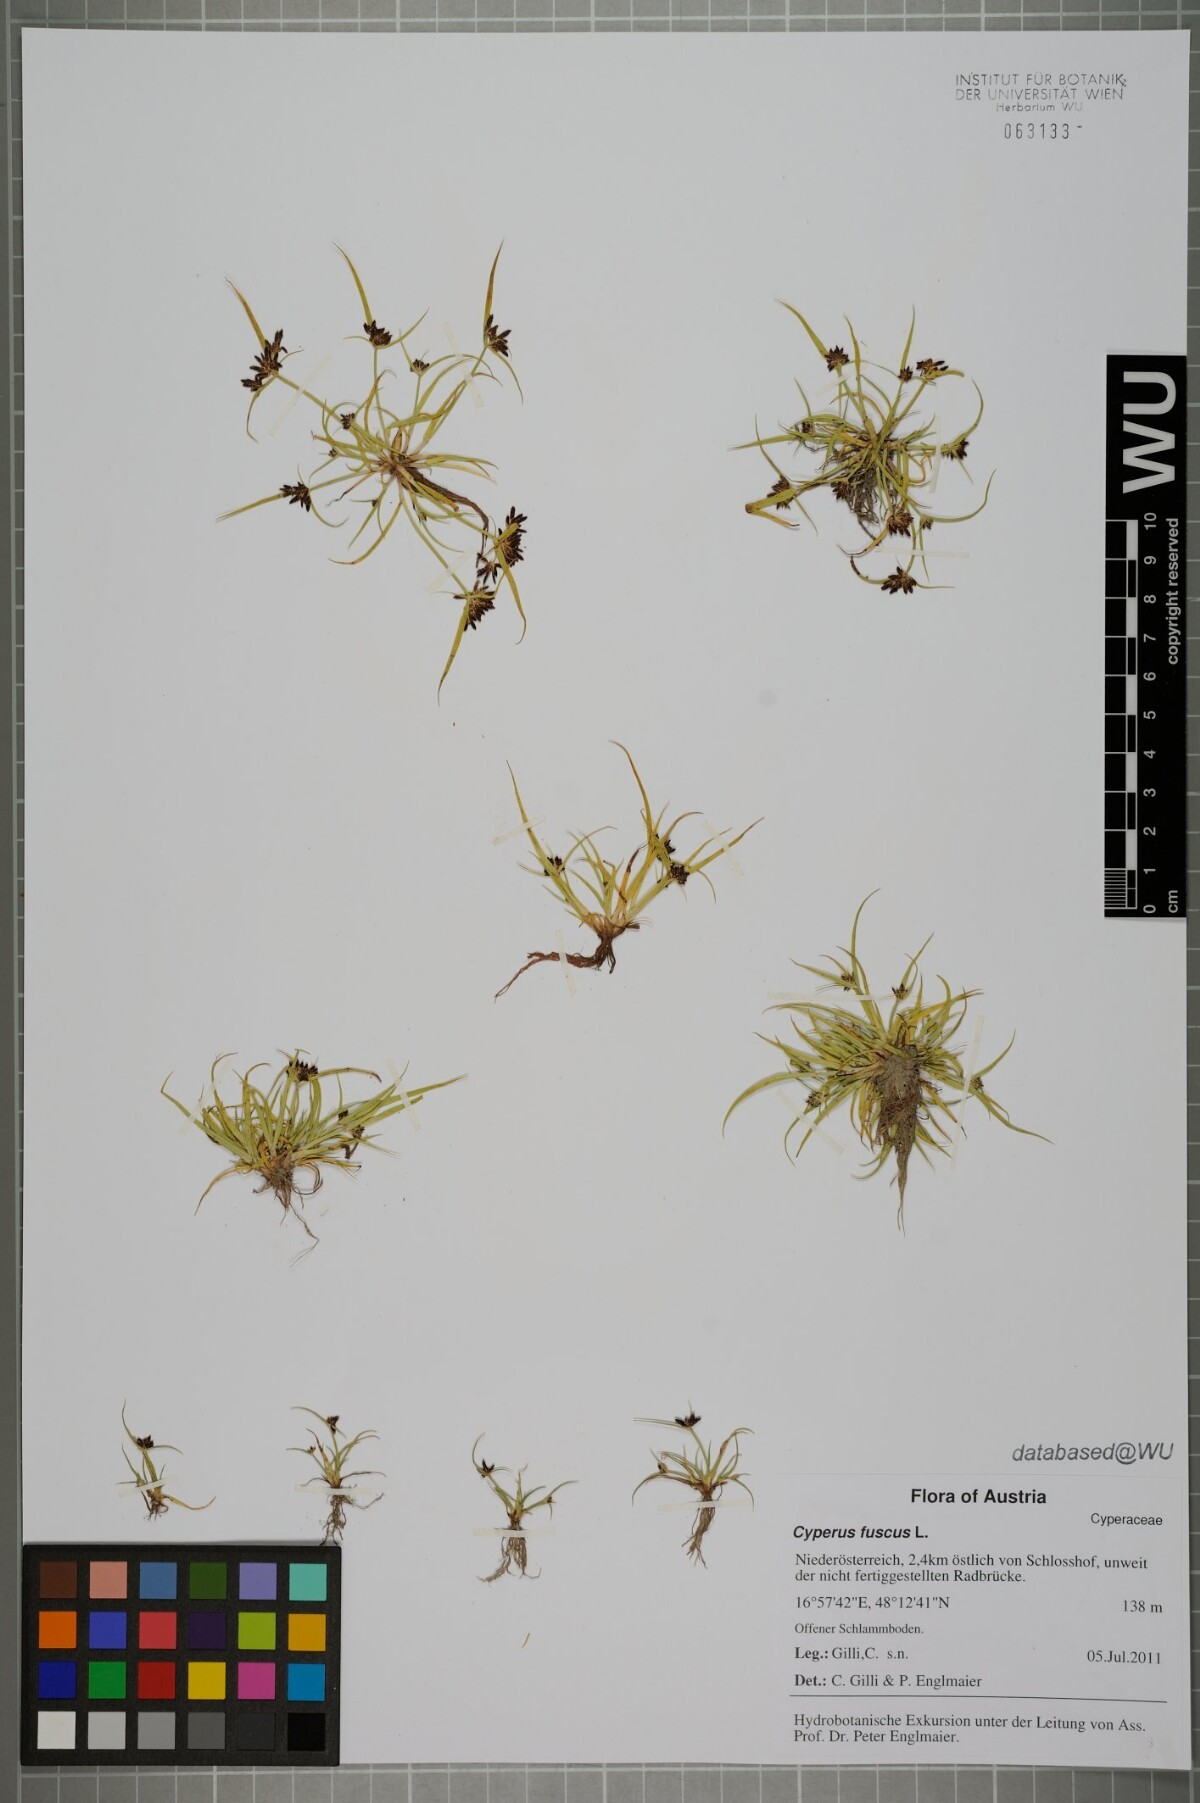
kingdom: Plantae
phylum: Tracheophyta
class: Liliopsida
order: Poales
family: Cyperaceae
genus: Cyperus
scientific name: Cyperus fuscus
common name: Brown galingale
